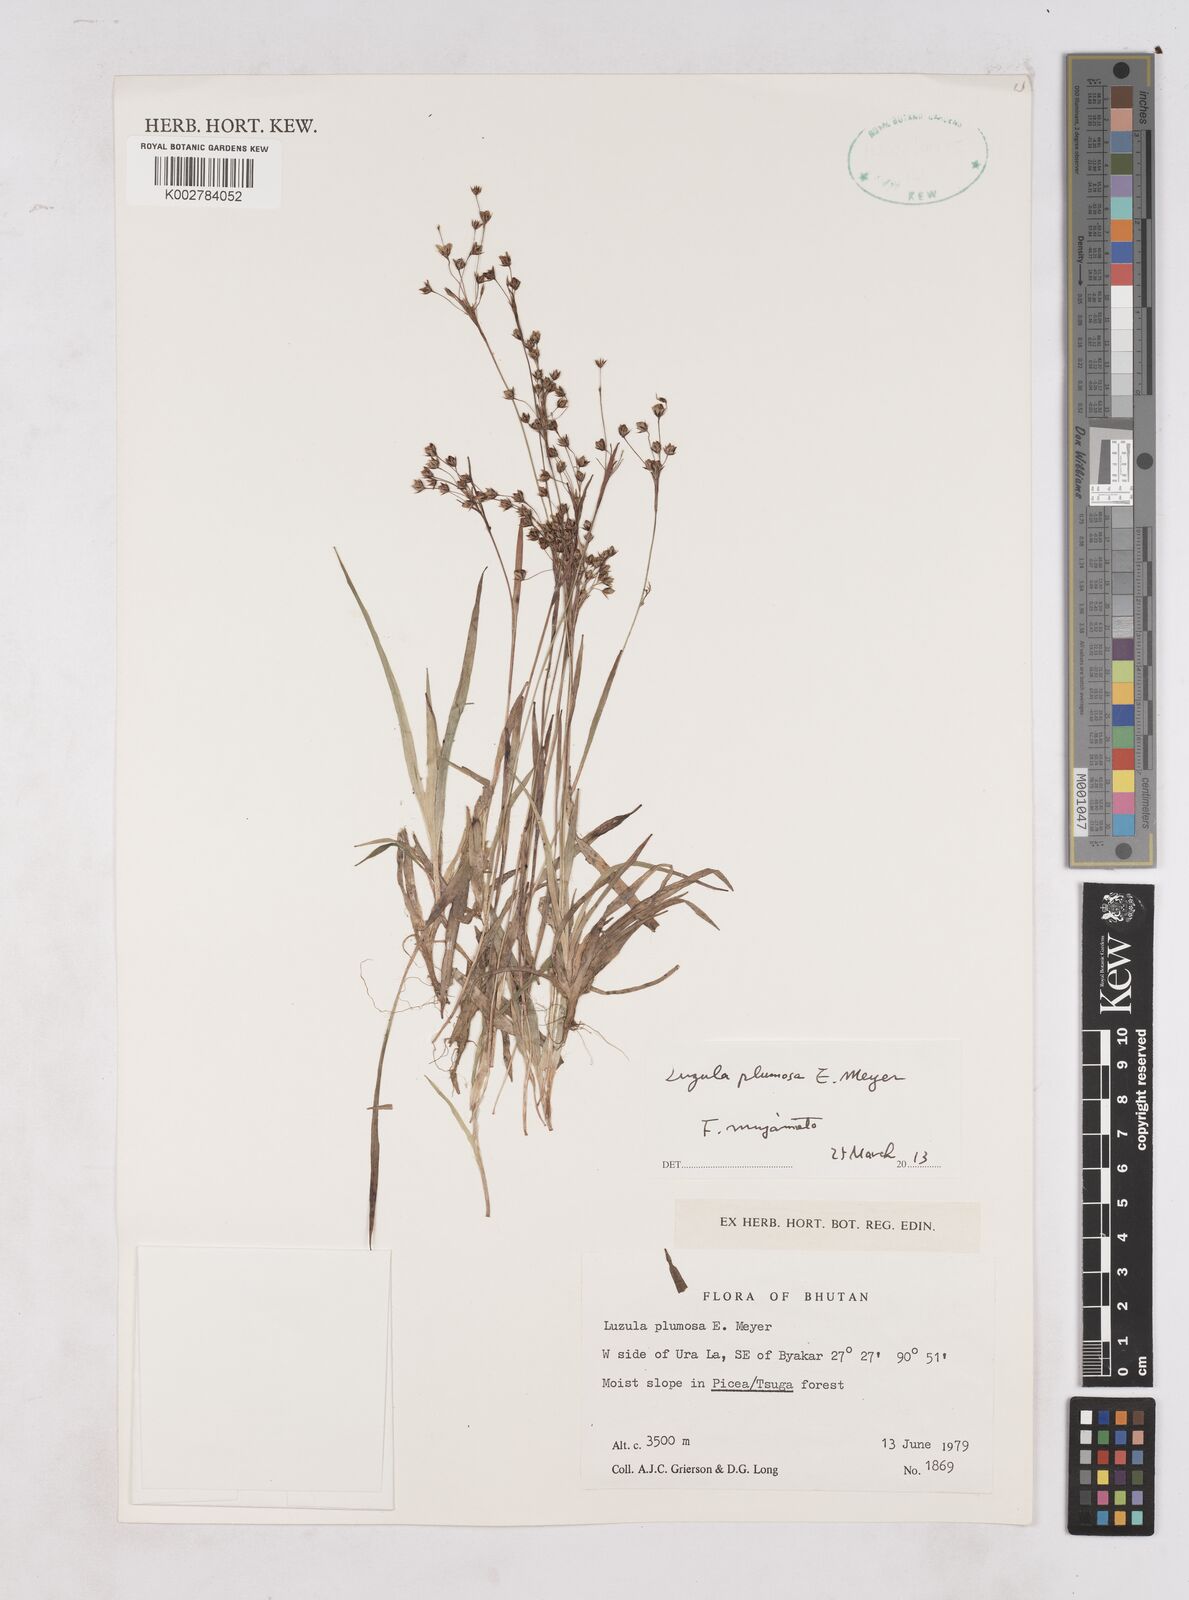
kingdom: Plantae
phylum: Tracheophyta
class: Liliopsida
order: Poales
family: Juncaceae
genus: Luzula
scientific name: Luzula plumosa
